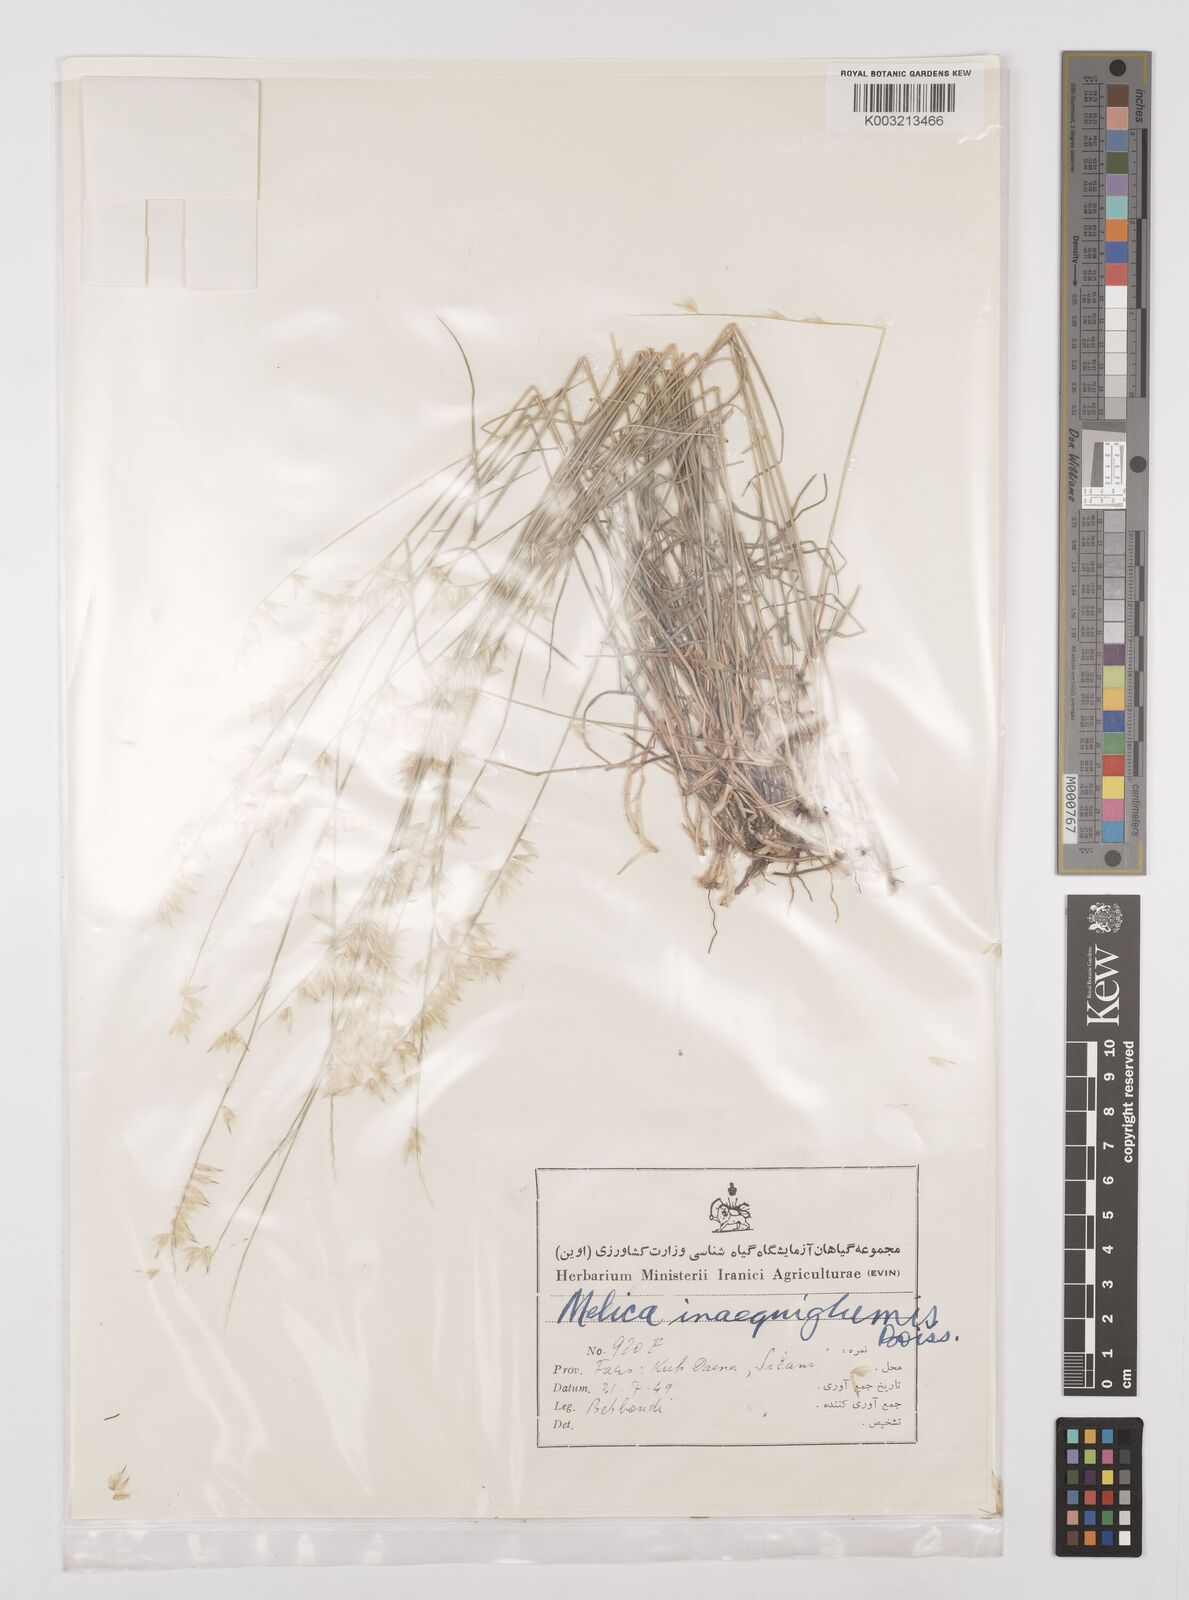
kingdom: Plantae
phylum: Tracheophyta
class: Liliopsida
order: Poales
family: Poaceae
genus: Melica
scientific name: Melica persica
